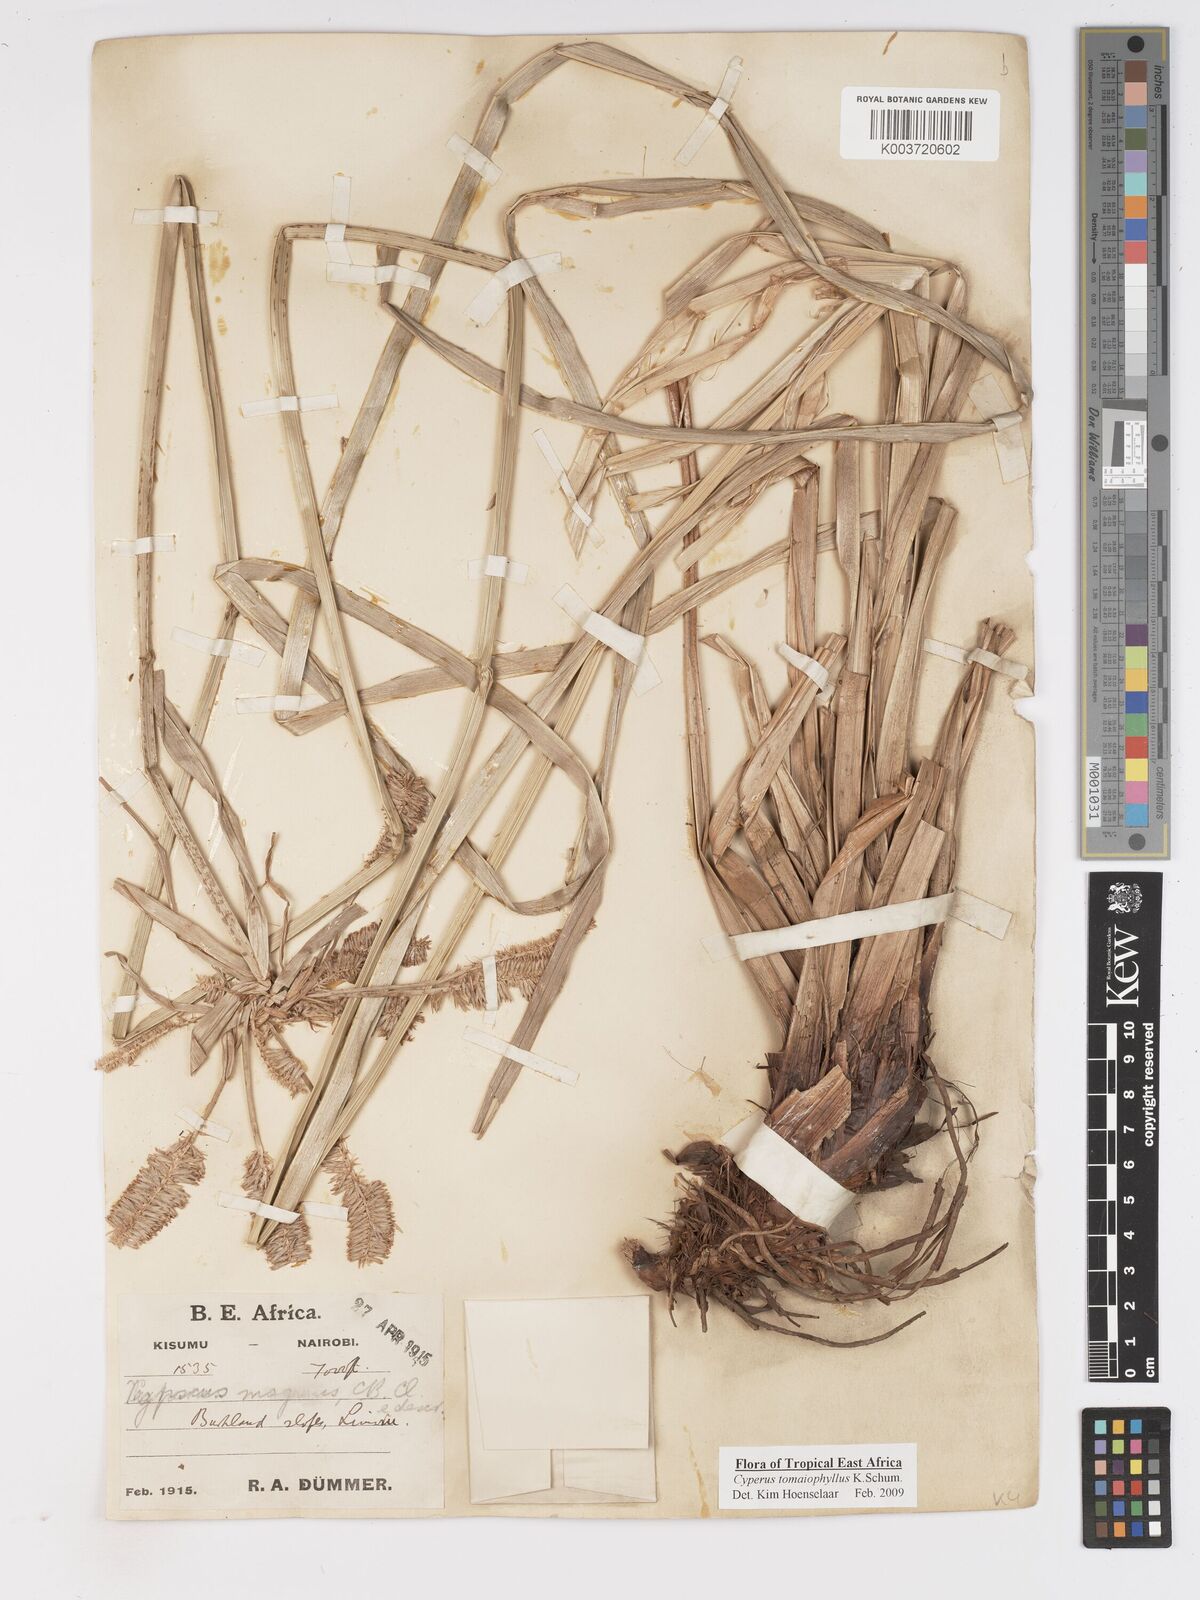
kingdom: Plantae
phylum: Tracheophyta
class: Liliopsida
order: Poales
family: Cyperaceae
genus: Cyperus
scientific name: Cyperus tomaiophyllus
